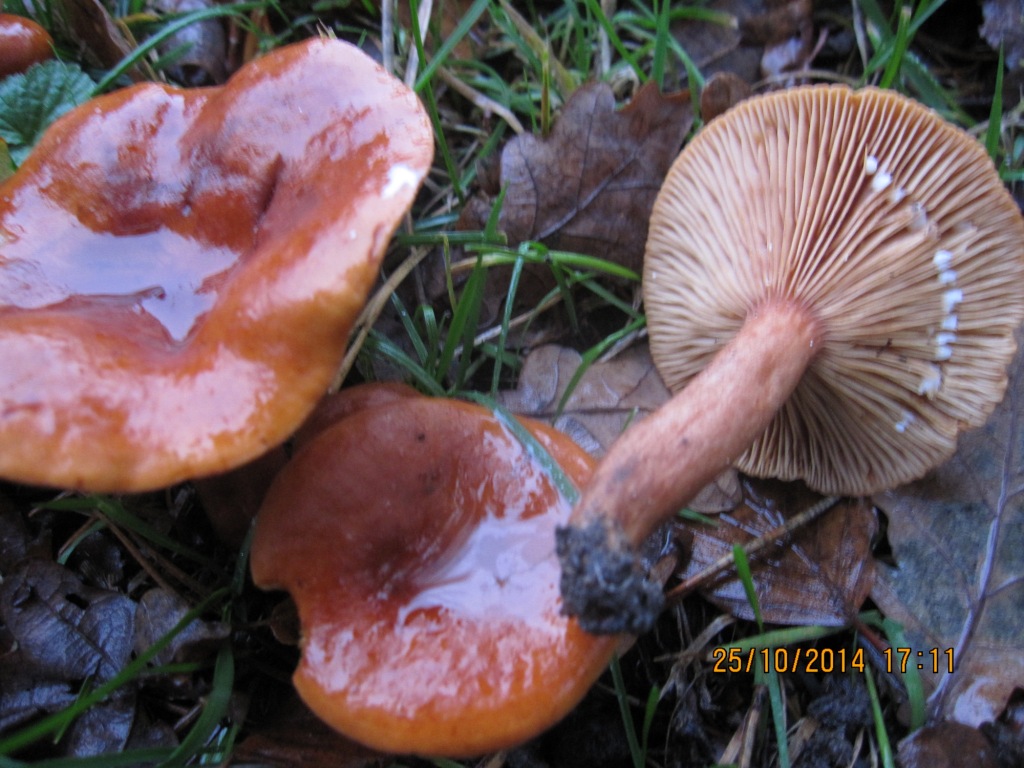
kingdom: Fungi
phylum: Basidiomycota
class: Agaricomycetes
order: Russulales
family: Russulaceae
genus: Lactarius
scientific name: Lactarius fulvissimus
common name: ræve-mælkehat
